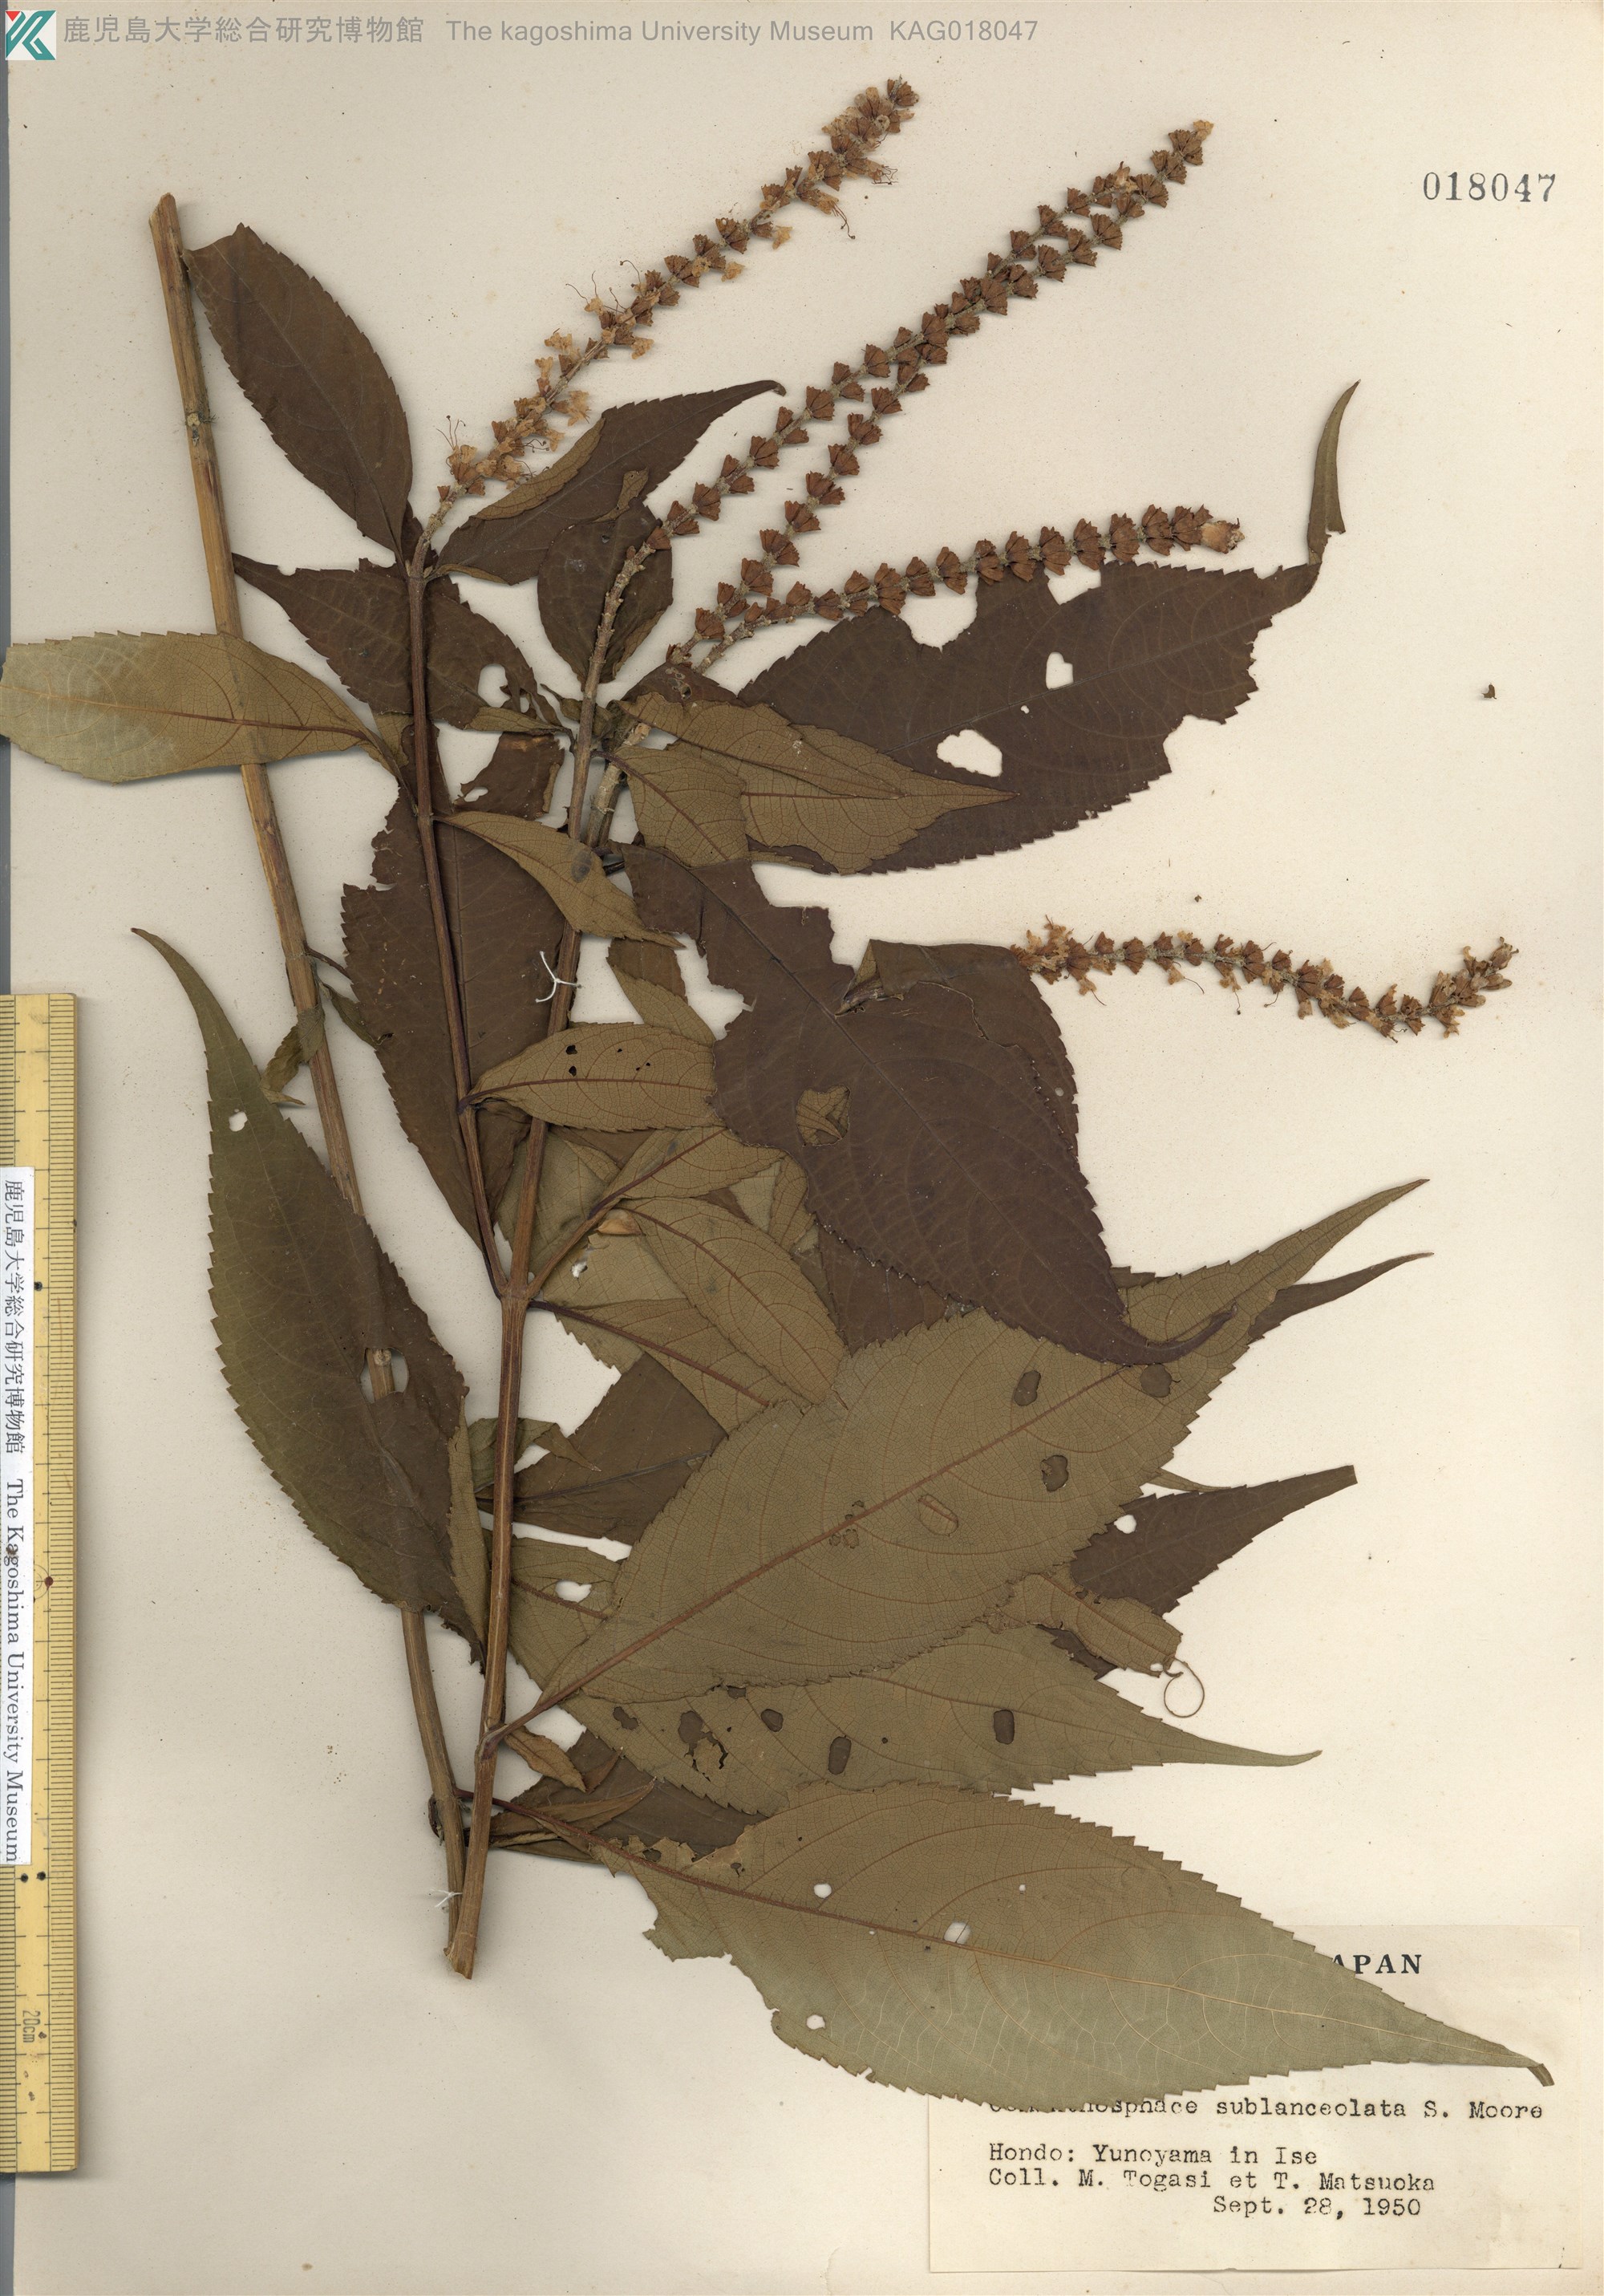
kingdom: Plantae
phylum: Tracheophyta
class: Magnoliopsida
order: Lamiales
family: Lamiaceae
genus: Comanthosphace
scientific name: Comanthosphace japonica
